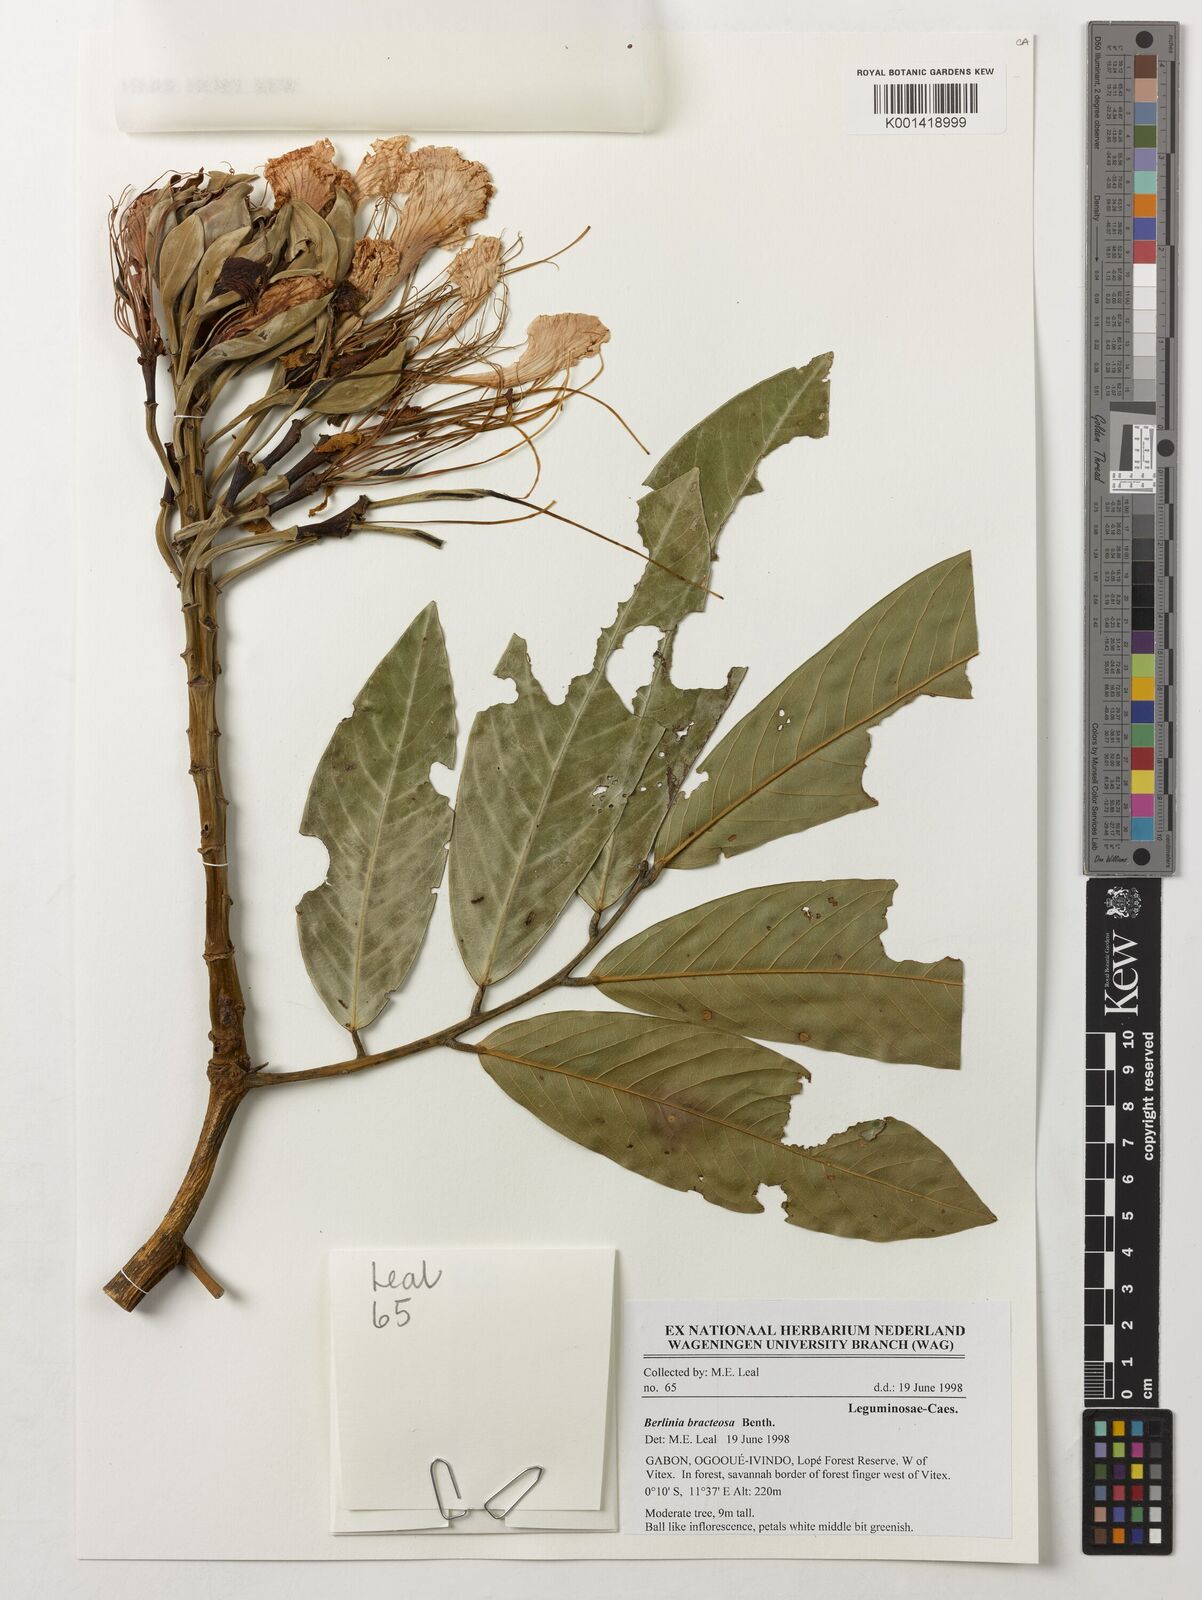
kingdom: Plantae
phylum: Tracheophyta
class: Magnoliopsida
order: Fabales
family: Fabaceae
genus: Berlinia
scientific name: Berlinia bracteosa
